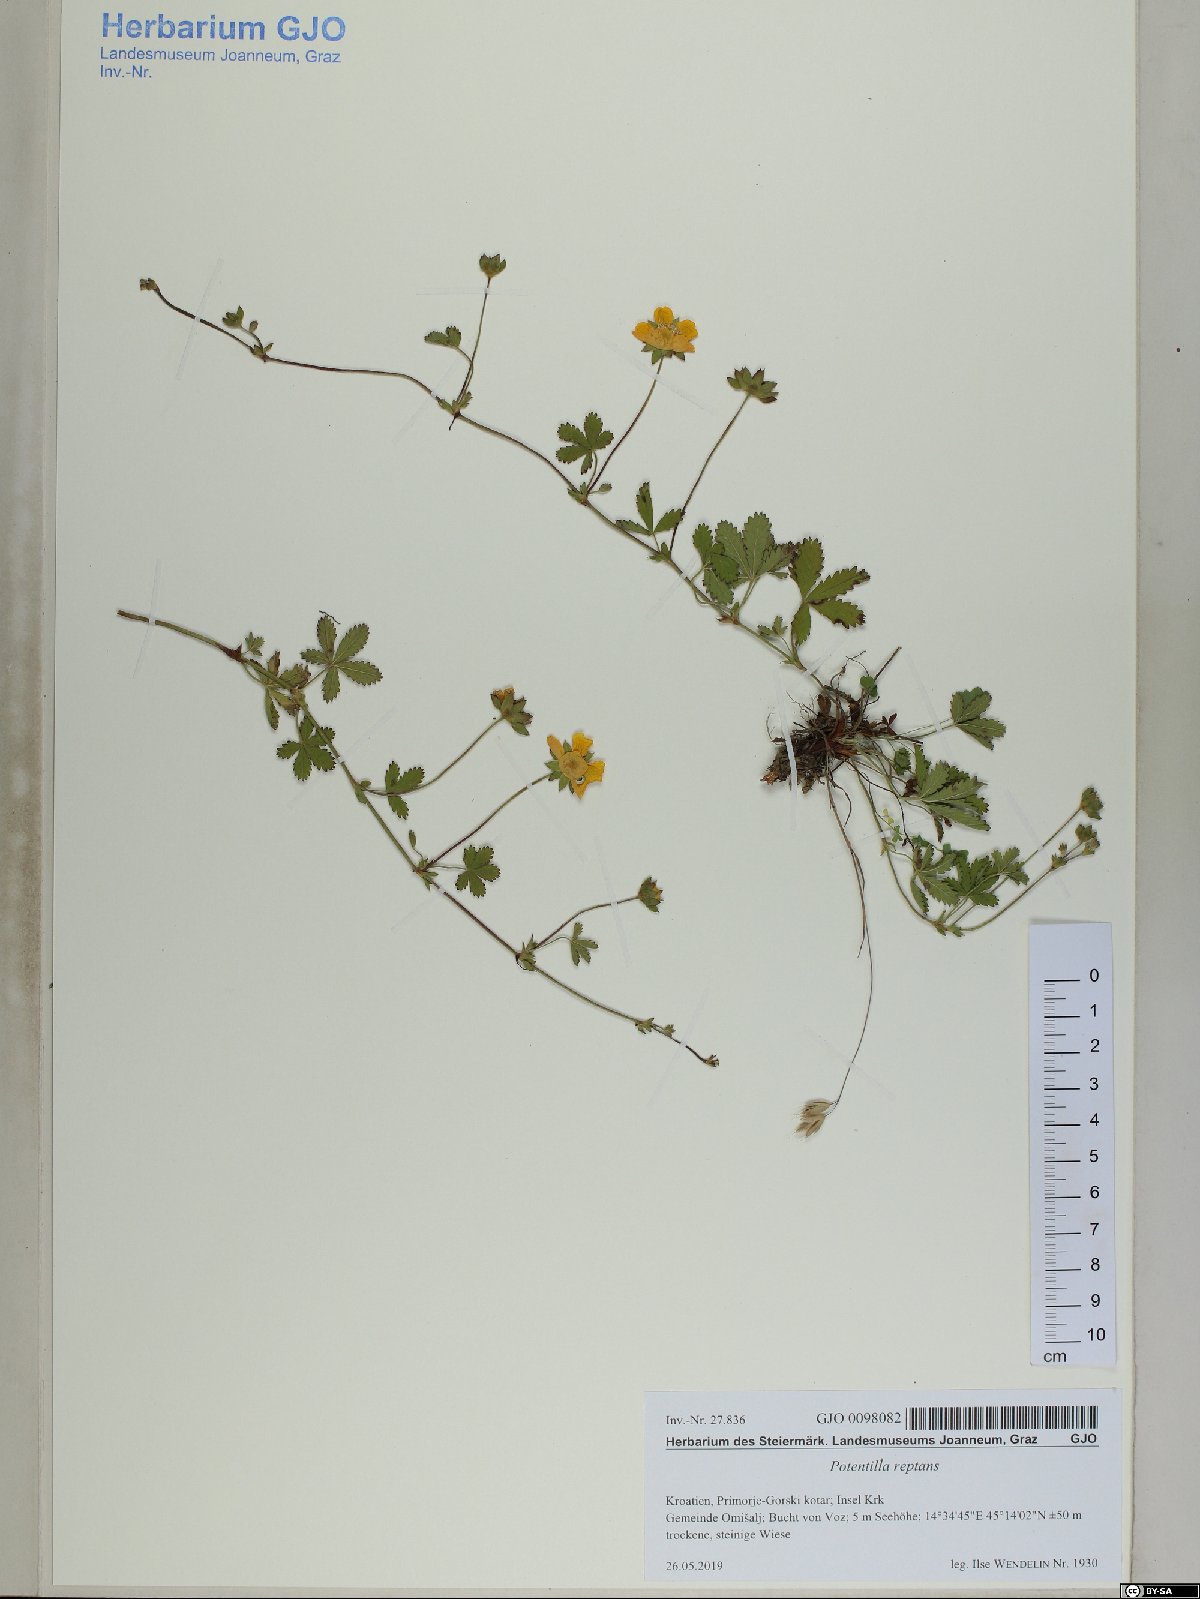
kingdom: Plantae
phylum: Tracheophyta
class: Magnoliopsida
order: Rosales
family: Rosaceae
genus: Potentilla
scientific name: Potentilla reptans
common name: Creeping cinquefoil
